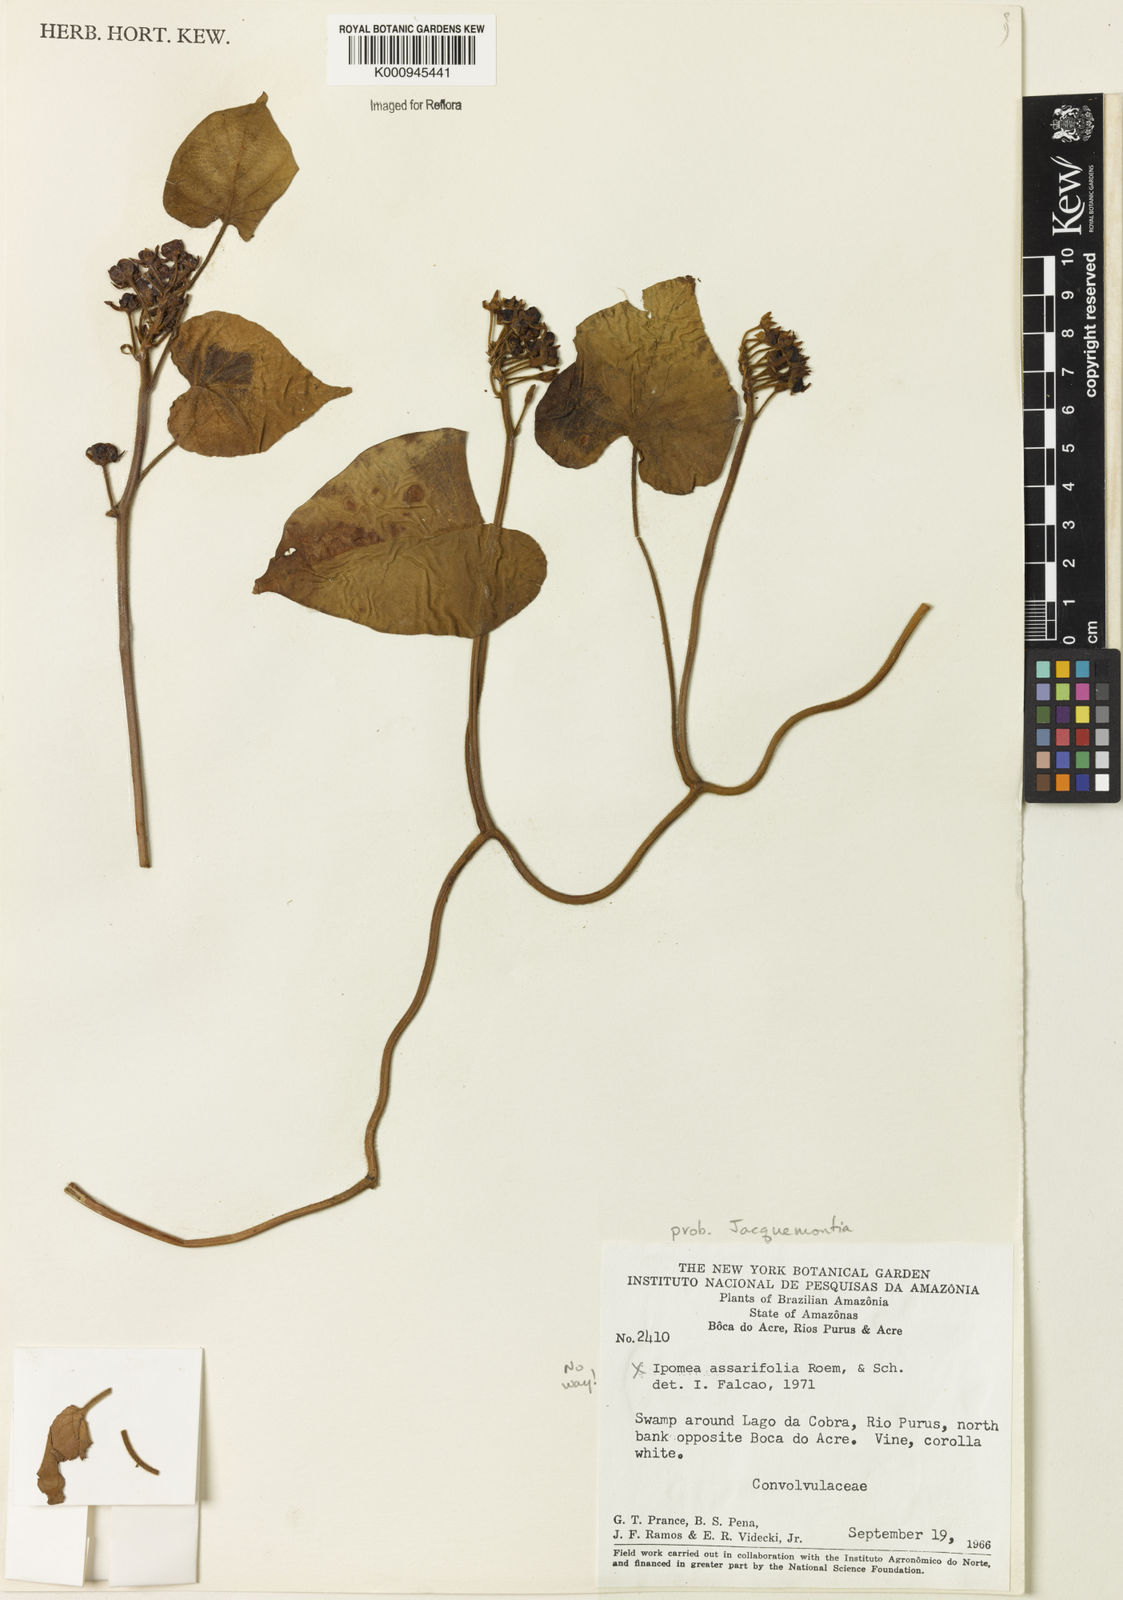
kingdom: Plantae
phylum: Tracheophyta
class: Magnoliopsida
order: Solanales
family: Convolvulaceae
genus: Jacquemontia
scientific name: Jacquemontia
